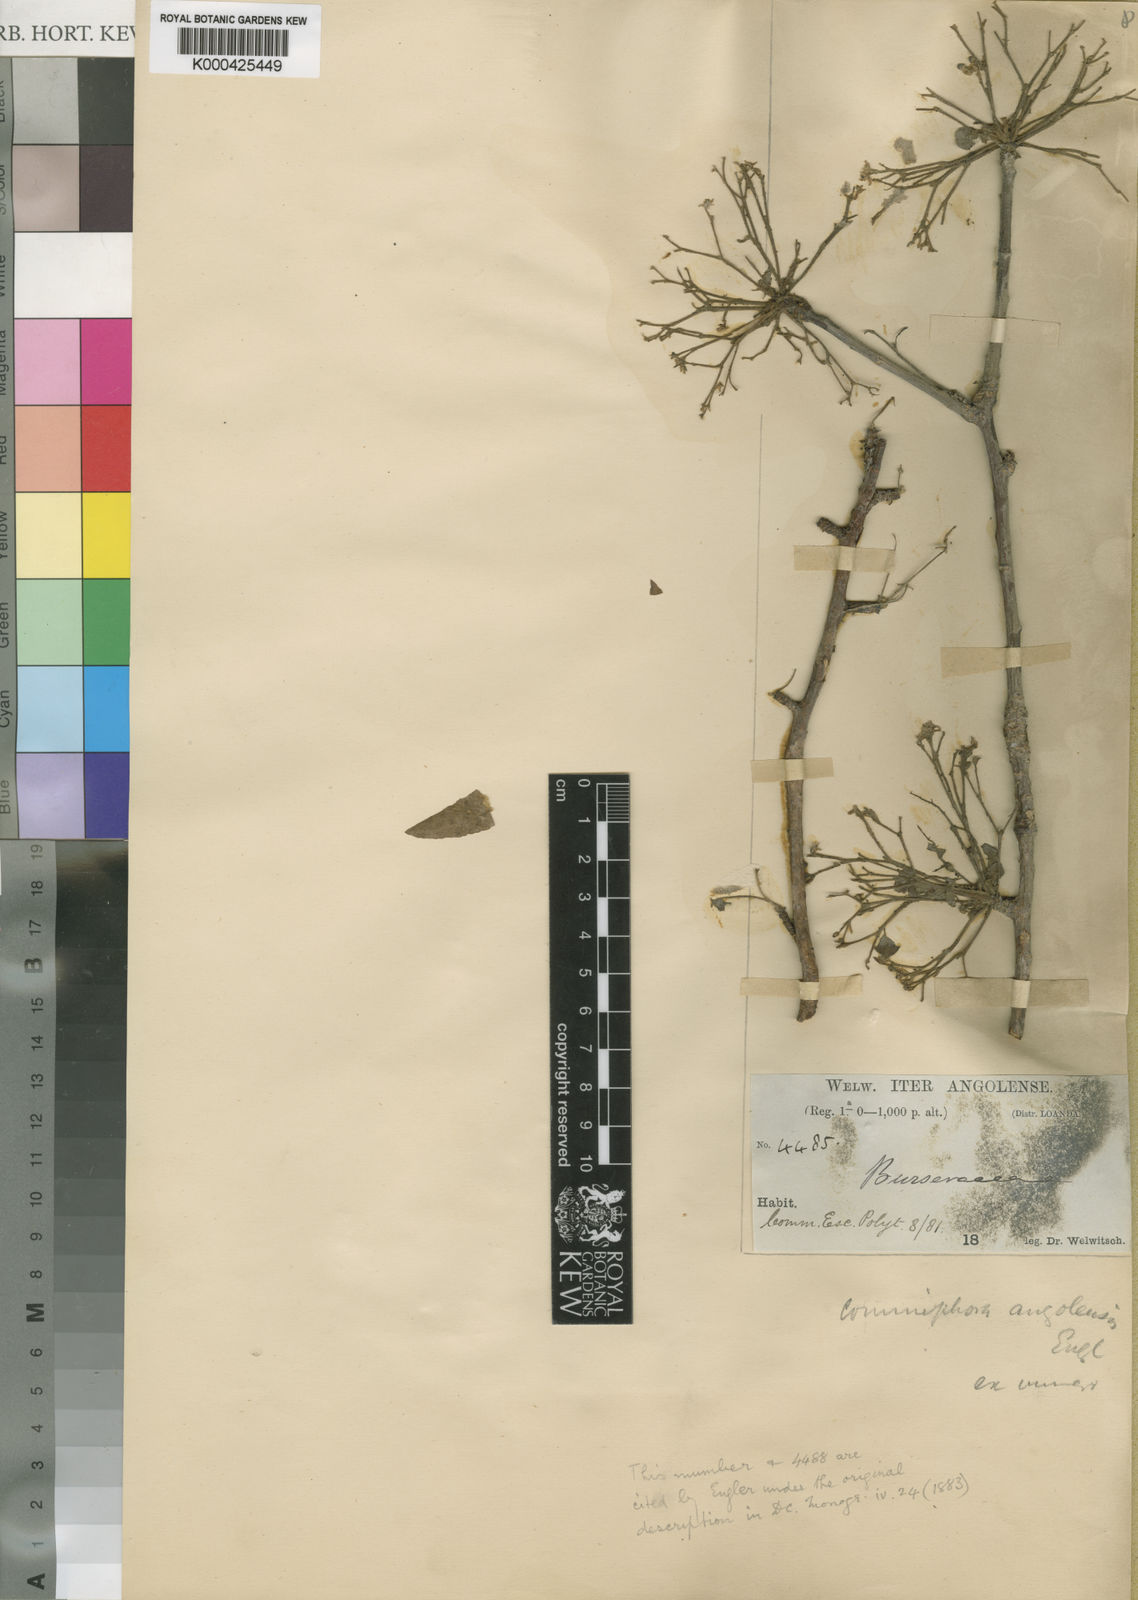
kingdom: Plantae
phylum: Tracheophyta
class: Magnoliopsida
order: Sapindales
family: Burseraceae
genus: Commiphora
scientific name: Commiphora angolensis
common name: Poison-grub
